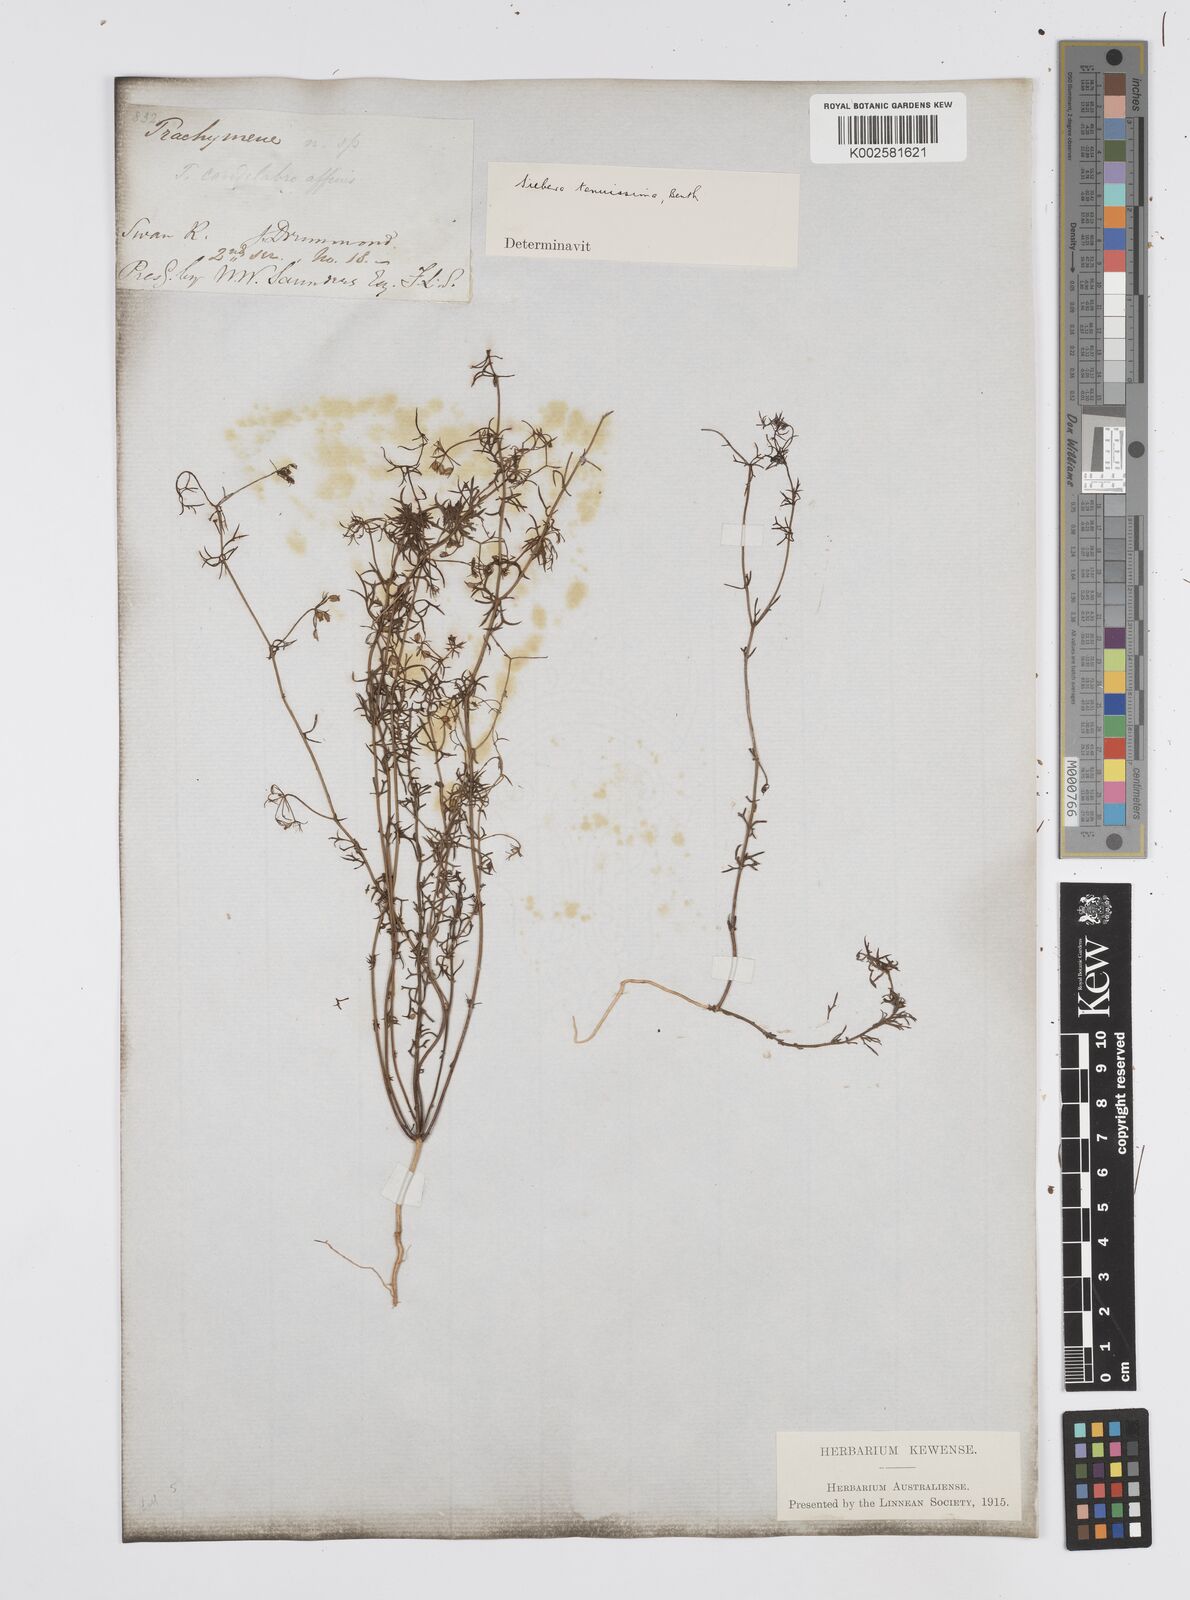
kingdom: Plantae
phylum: Tracheophyta
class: Magnoliopsida
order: Apiales
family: Apiaceae
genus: Platysace
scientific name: Platysace tenuissima
